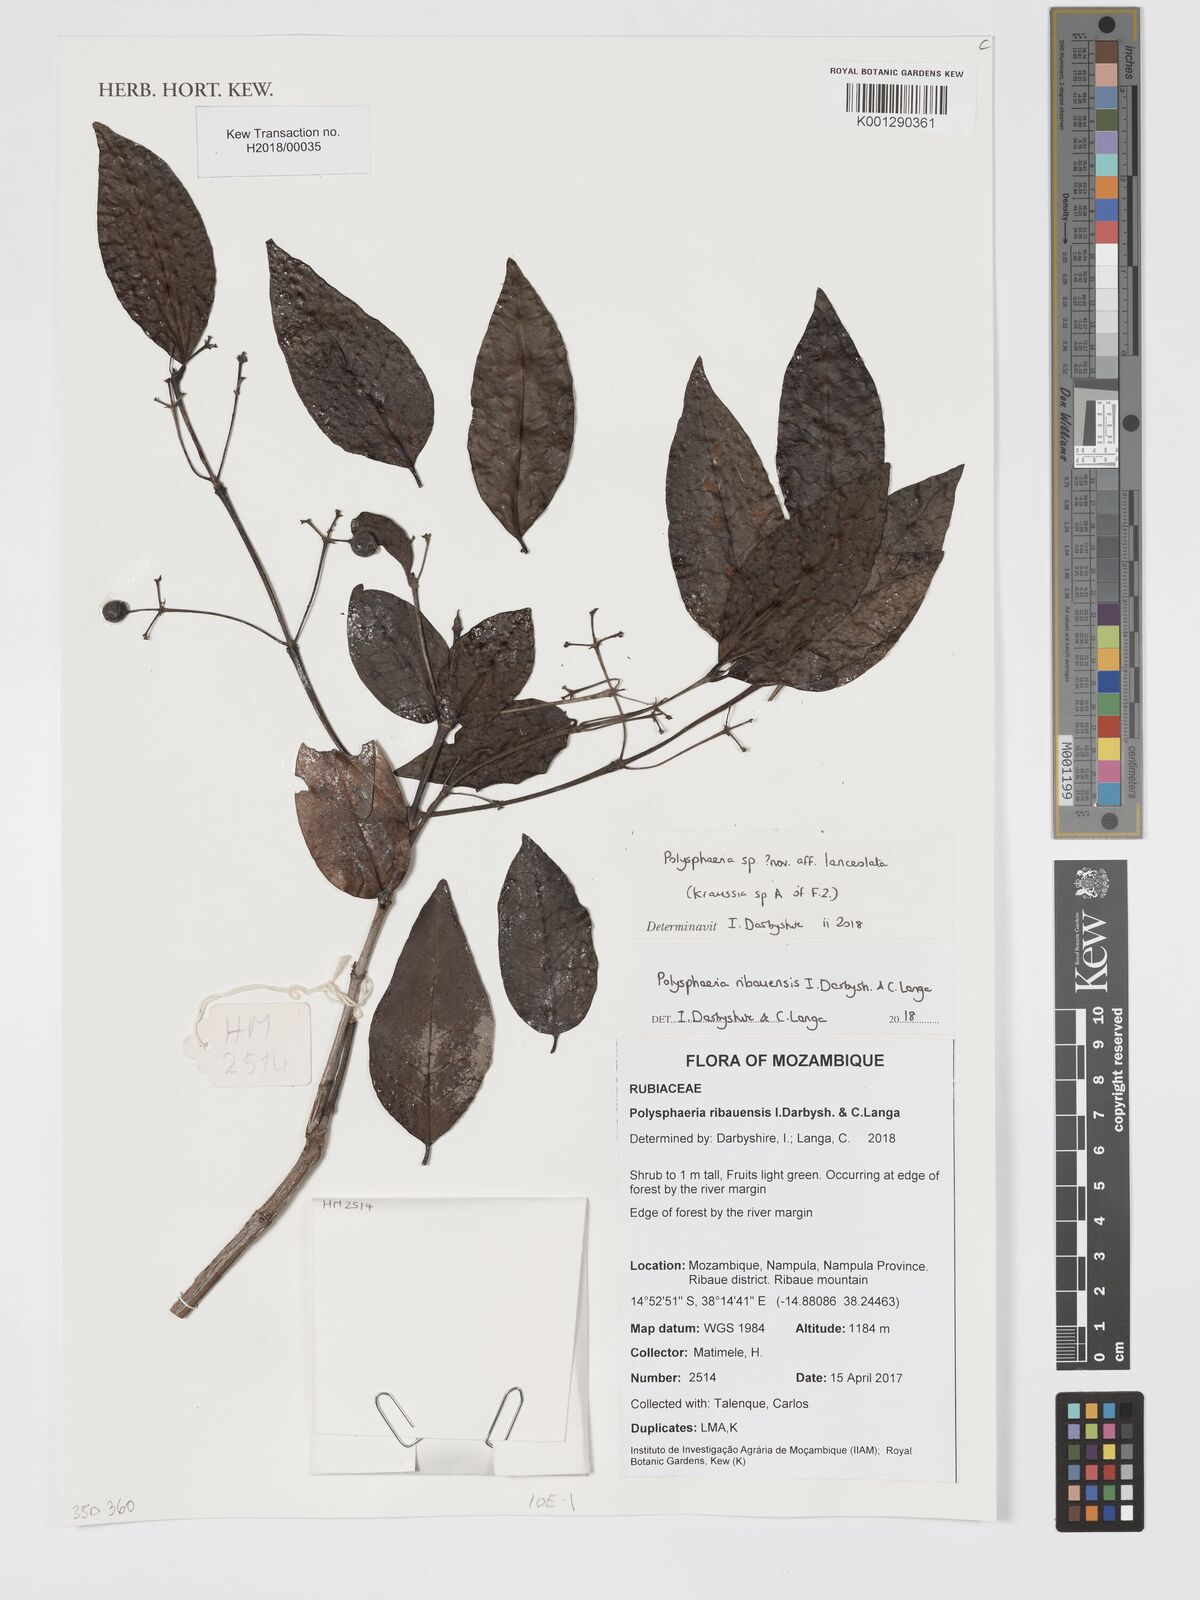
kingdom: Plantae
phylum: Tracheophyta
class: Magnoliopsida
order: Gentianales
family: Rubiaceae
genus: Polysphaeria
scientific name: Polysphaeria lanceolata
